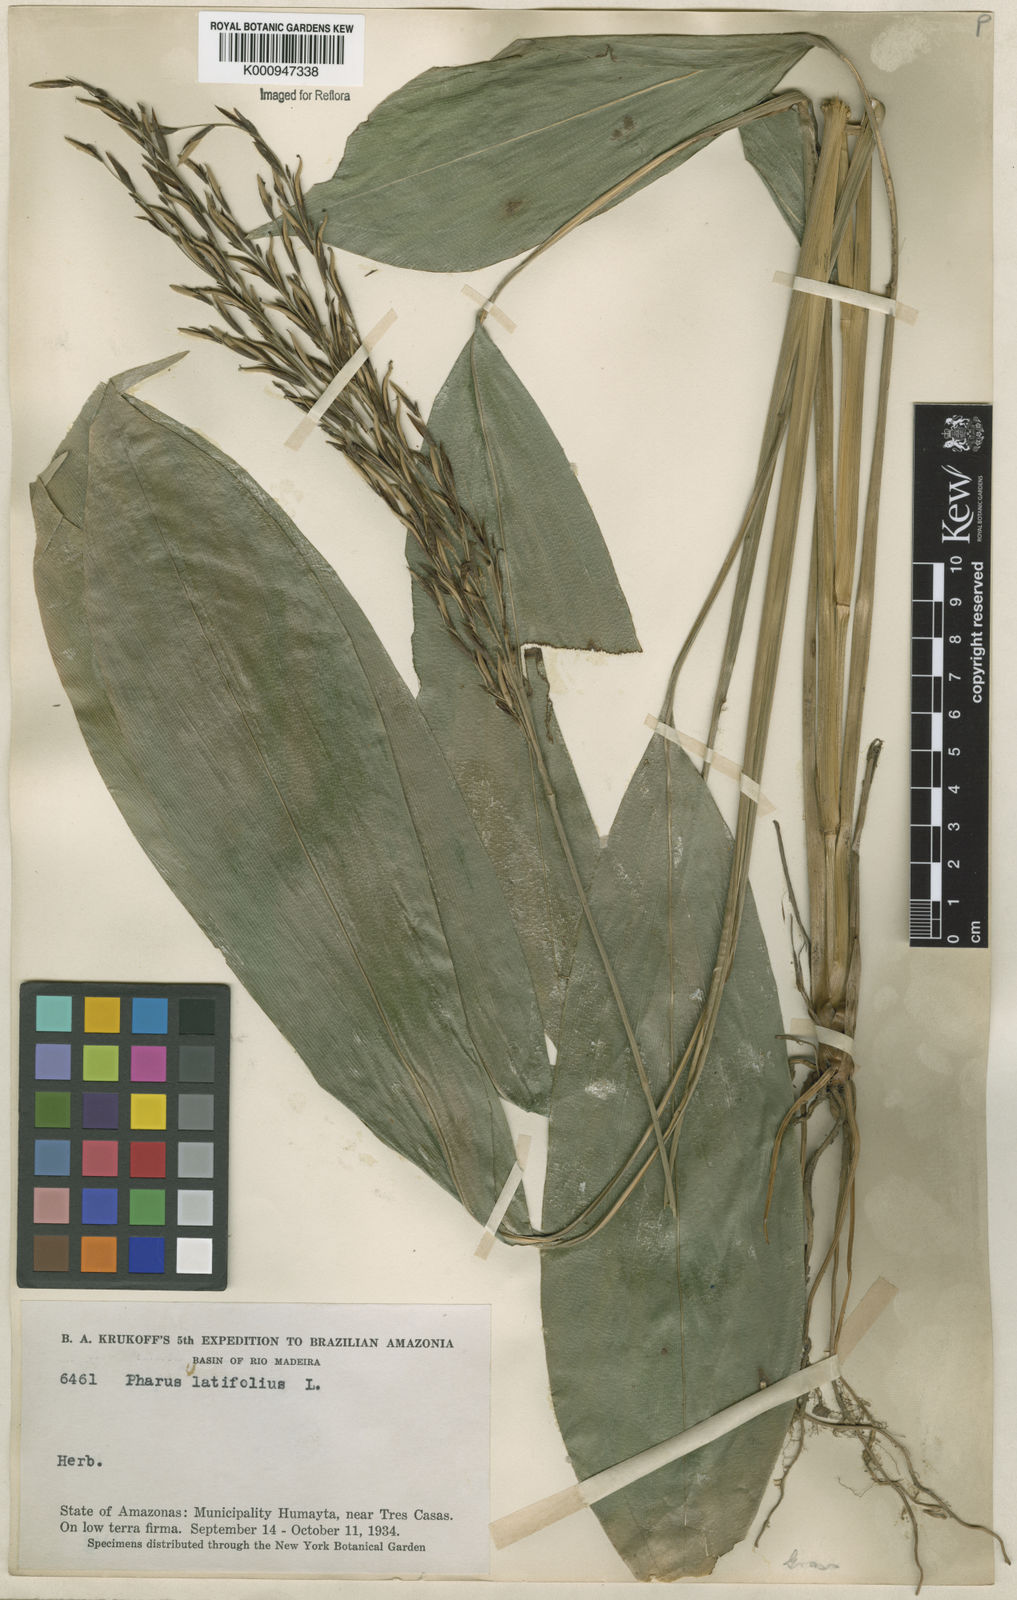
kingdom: Plantae
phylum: Tracheophyta
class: Liliopsida
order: Poales
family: Poaceae
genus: Pharus
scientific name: Pharus latifolius
